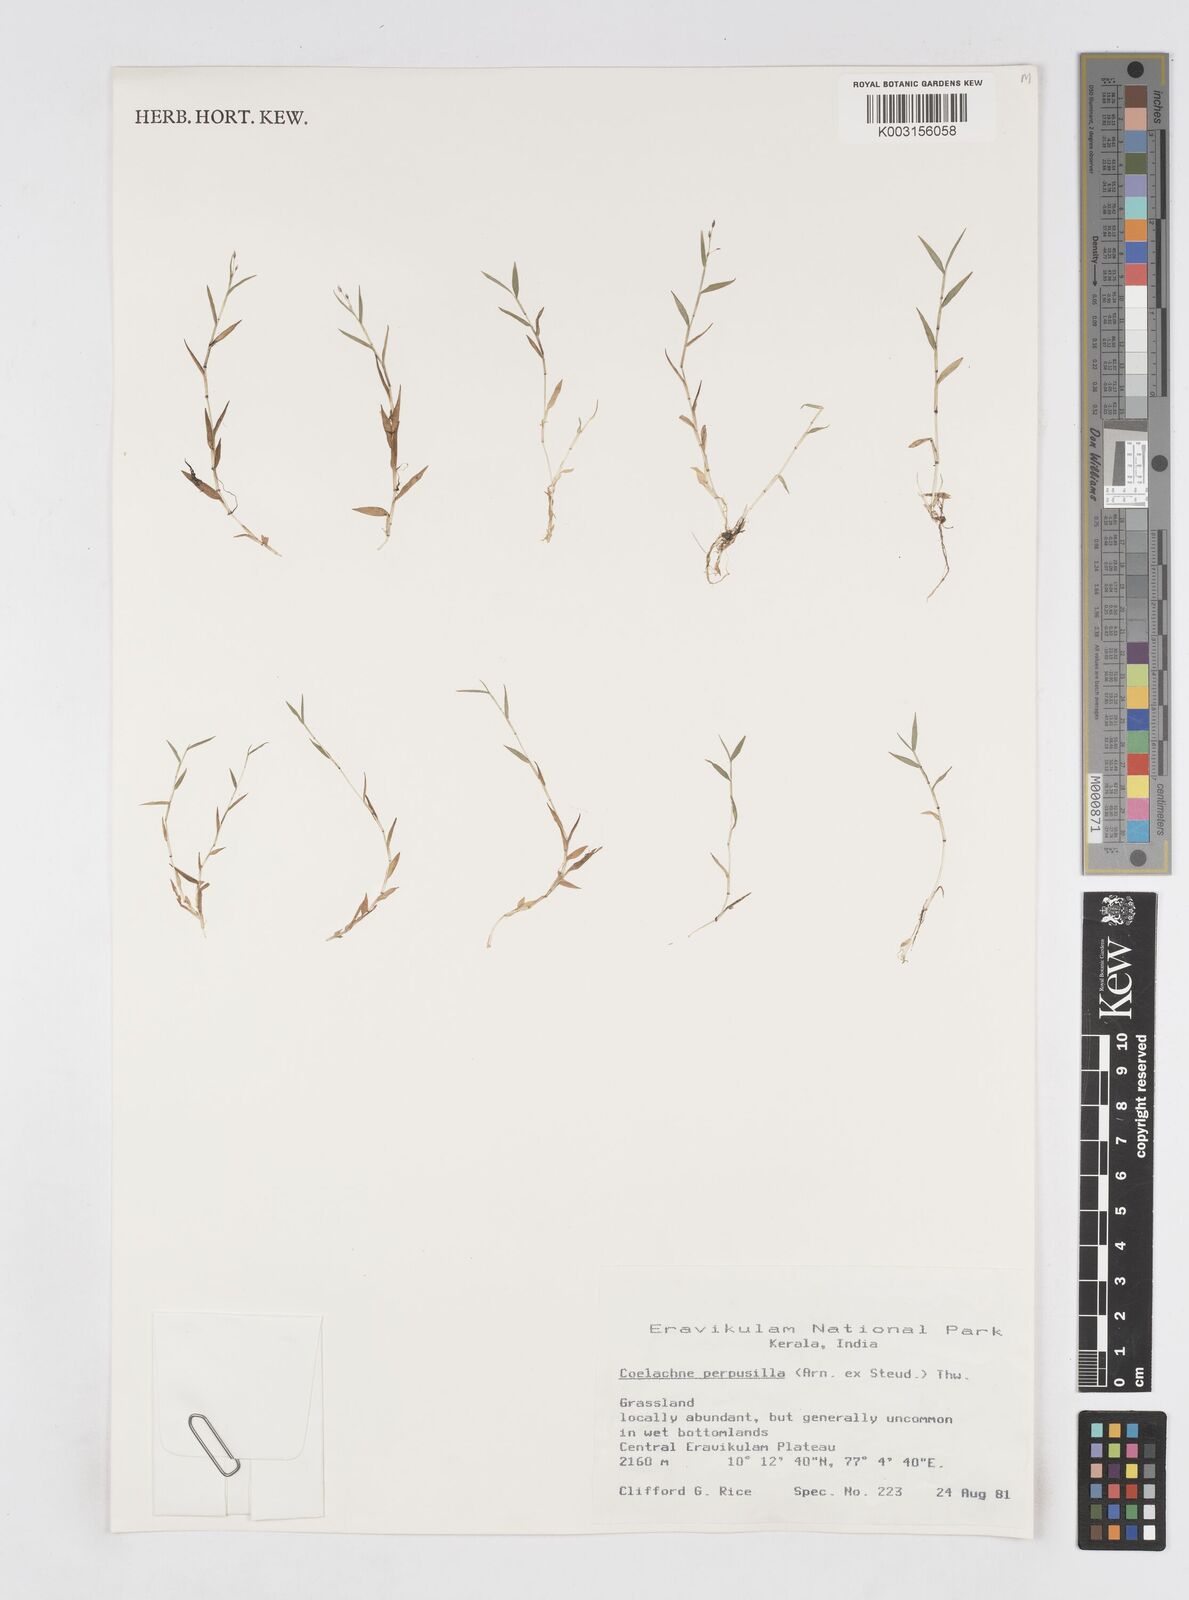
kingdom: Plantae
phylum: Tracheophyta
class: Liliopsida
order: Poales
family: Poaceae
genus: Coelachne
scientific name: Coelachne perpusilla
